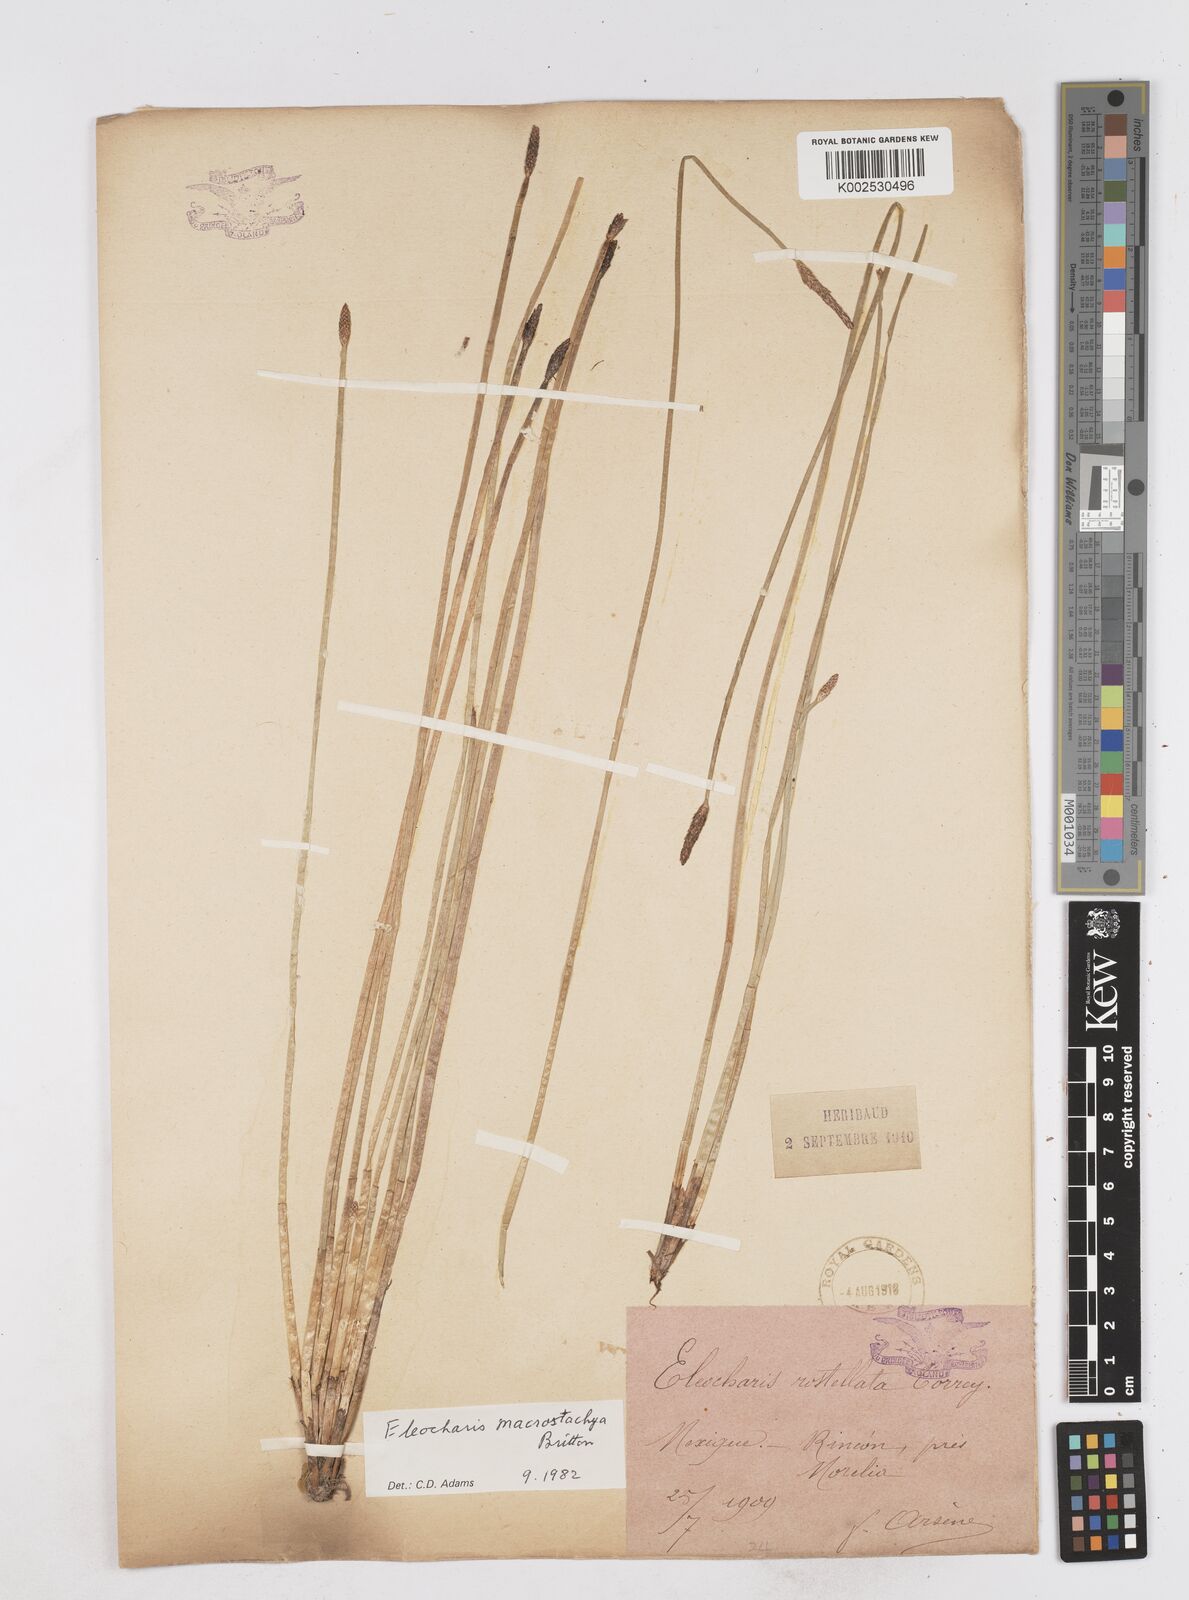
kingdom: Plantae
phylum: Tracheophyta
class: Liliopsida
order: Poales
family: Cyperaceae
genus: Eleocharis
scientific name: Eleocharis palustris
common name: Common spike-rush
